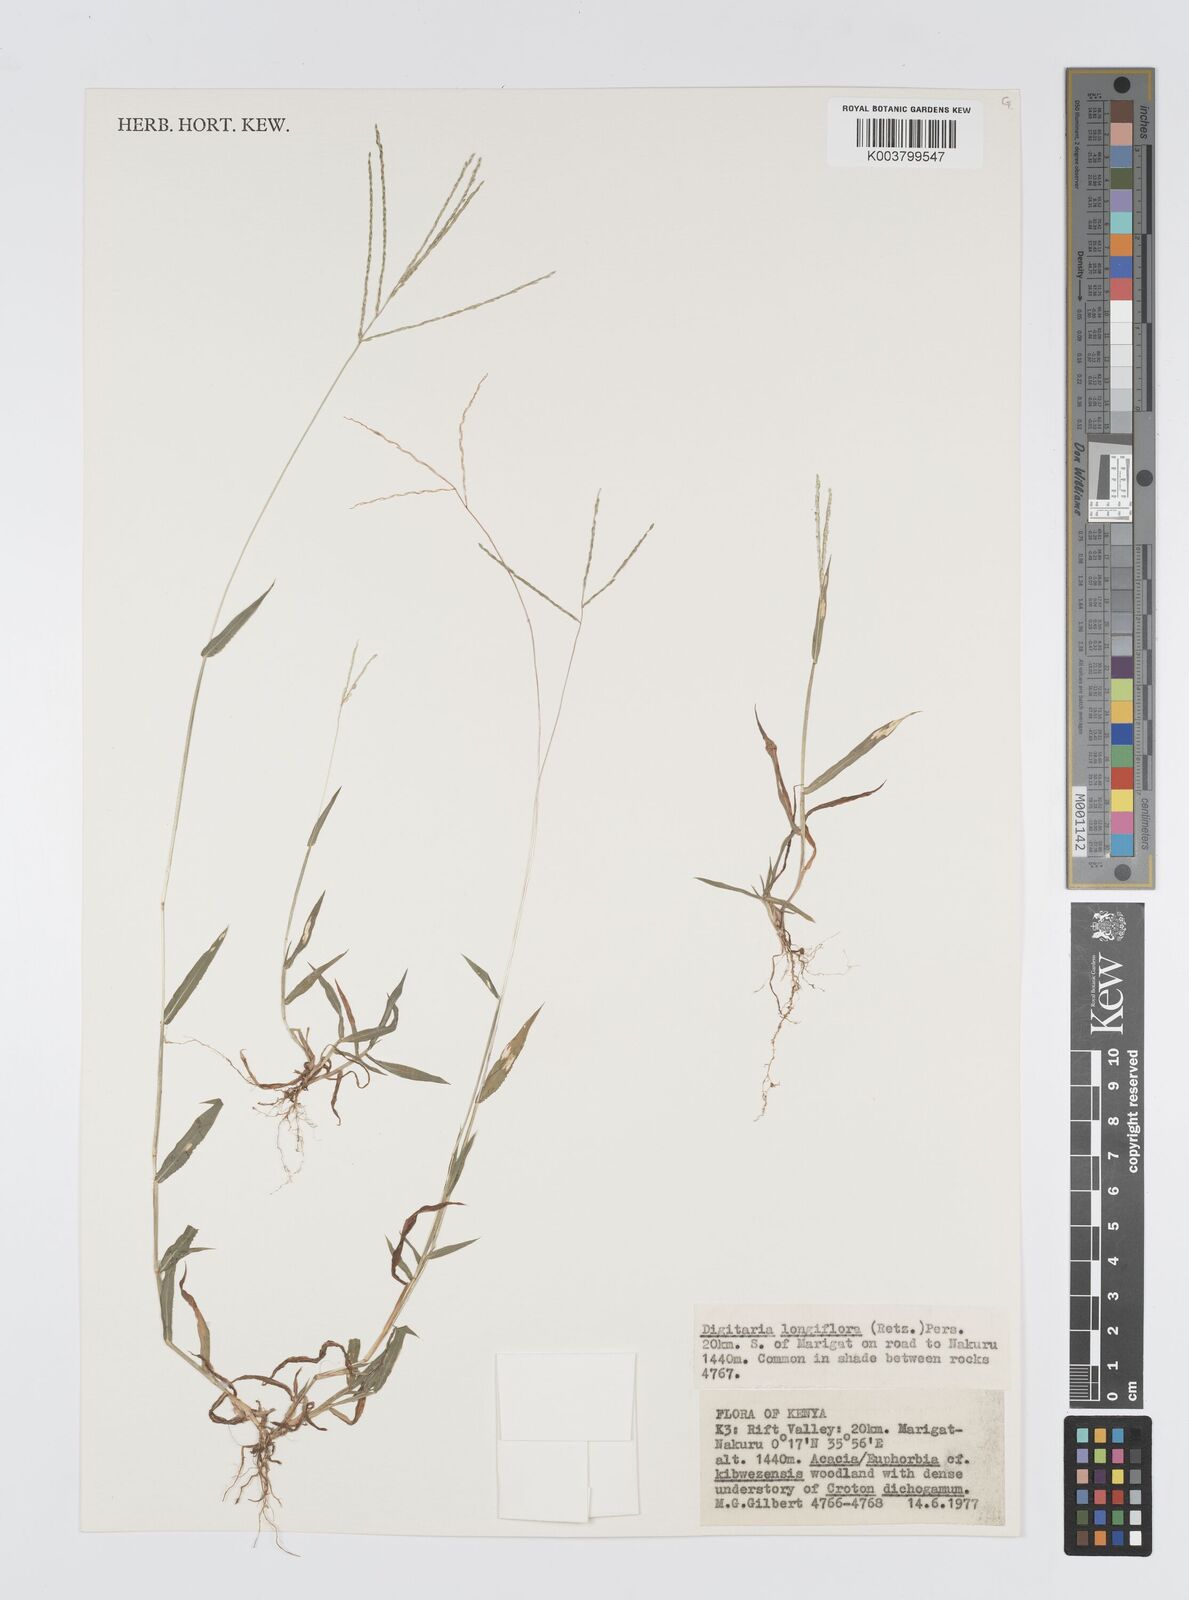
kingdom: Plantae
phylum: Tracheophyta
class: Liliopsida
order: Poales
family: Poaceae
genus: Digitaria
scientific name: Digitaria longiflora
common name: Wire crabgrass
